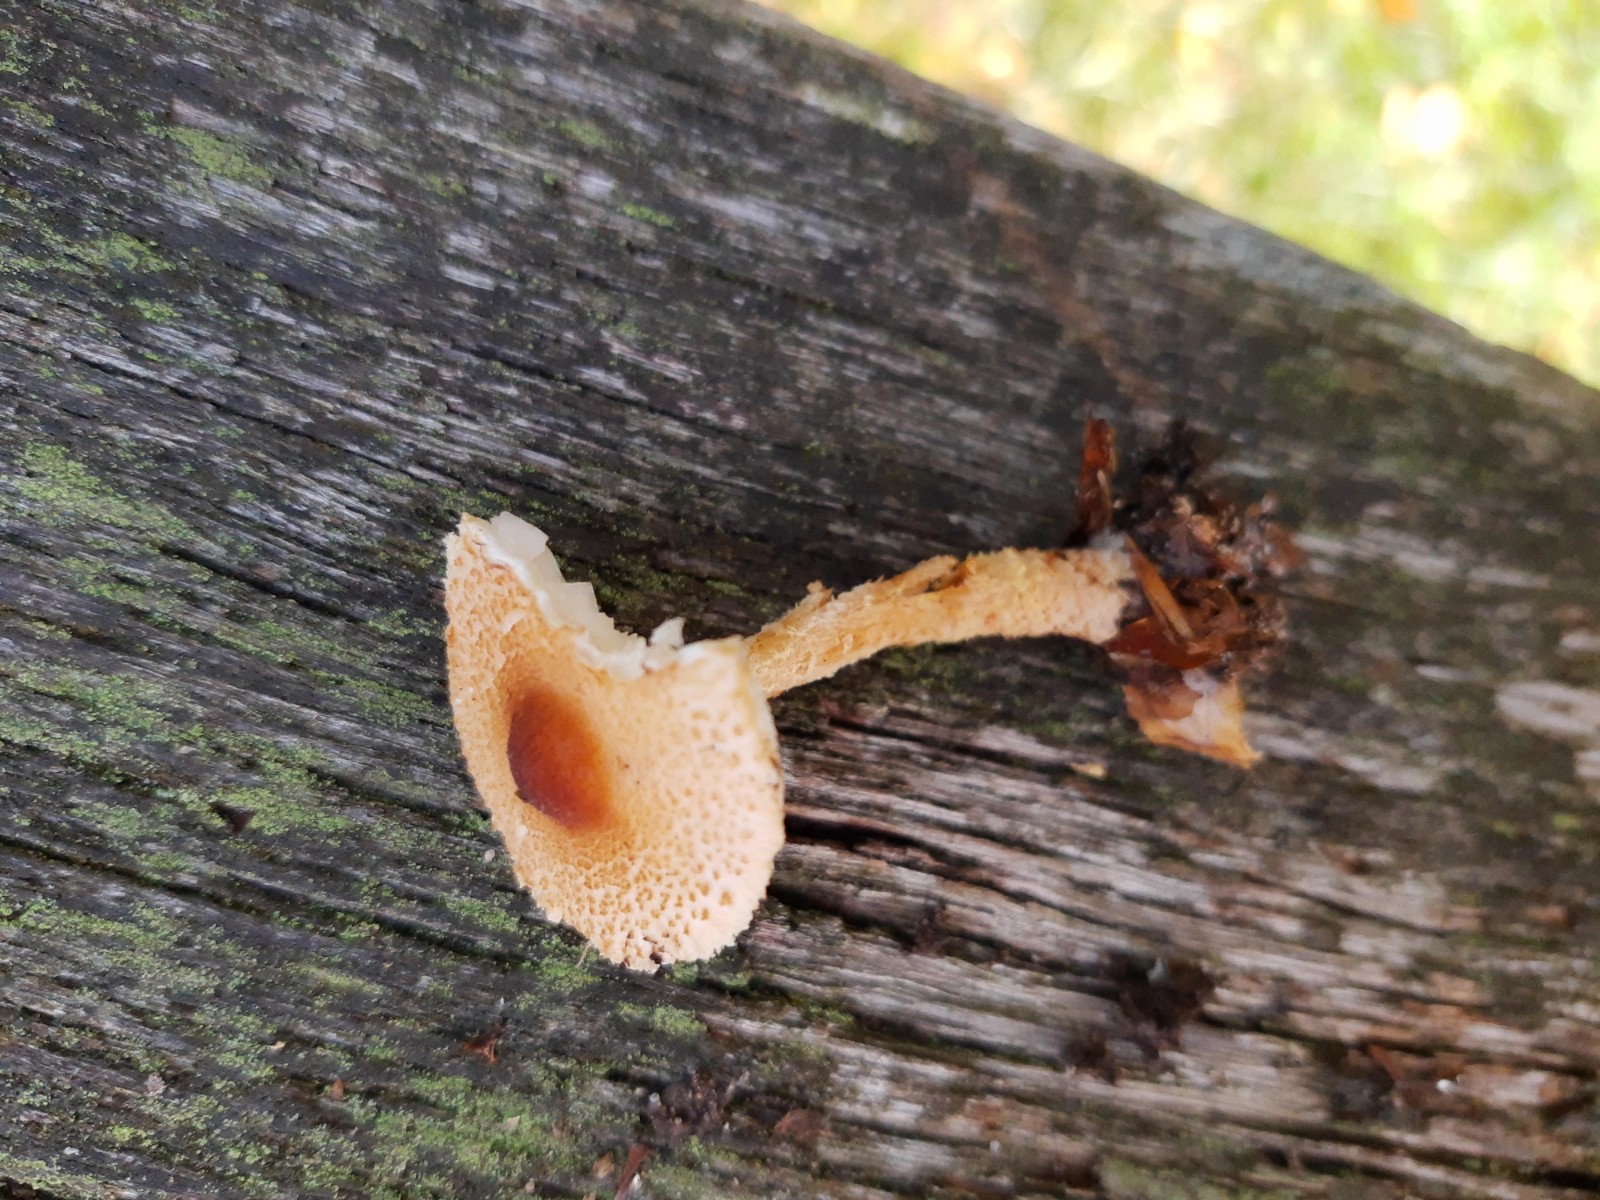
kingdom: Fungi
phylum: Basidiomycota
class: Agaricomycetes
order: Agaricales
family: Agaricaceae
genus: Lepiota
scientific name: Lepiota magnispora
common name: gulfnugget parasolhat
